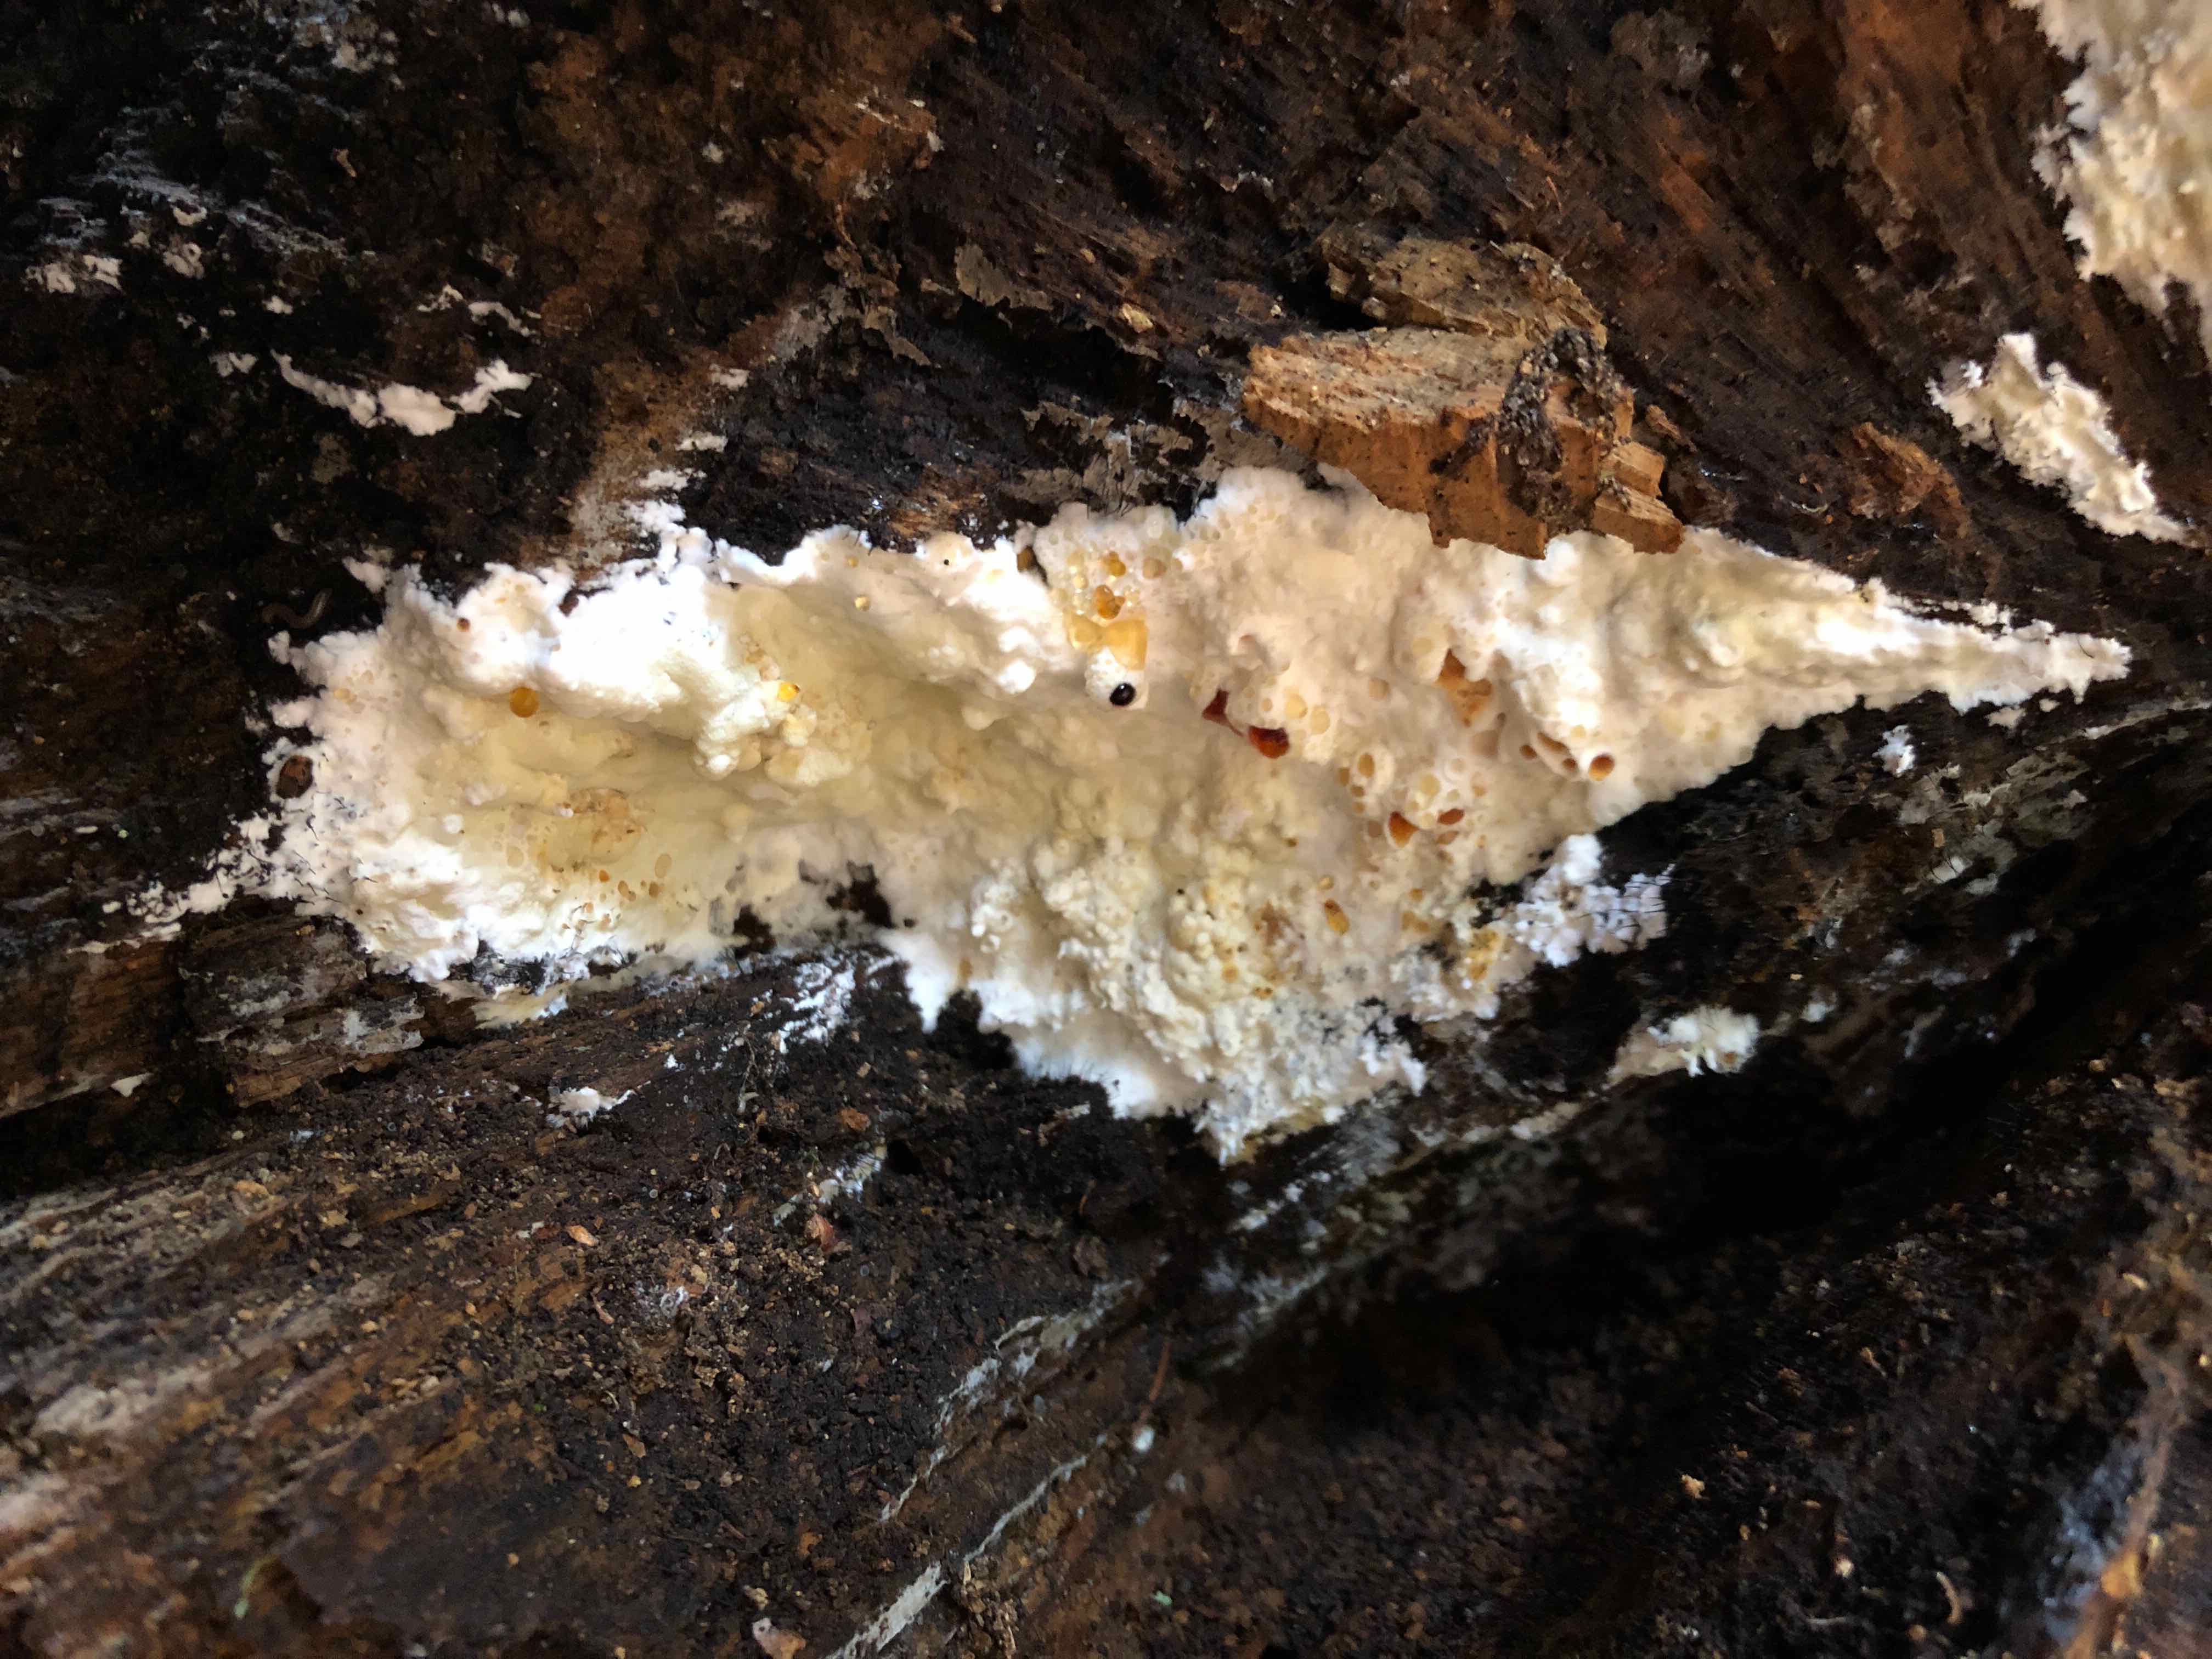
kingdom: Fungi
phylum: Basidiomycota
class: Agaricomycetes
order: Polyporales
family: Irpicaceae
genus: Gloeoporus
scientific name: Gloeoporus pannocinctus
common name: grøngul foldporesvamp
